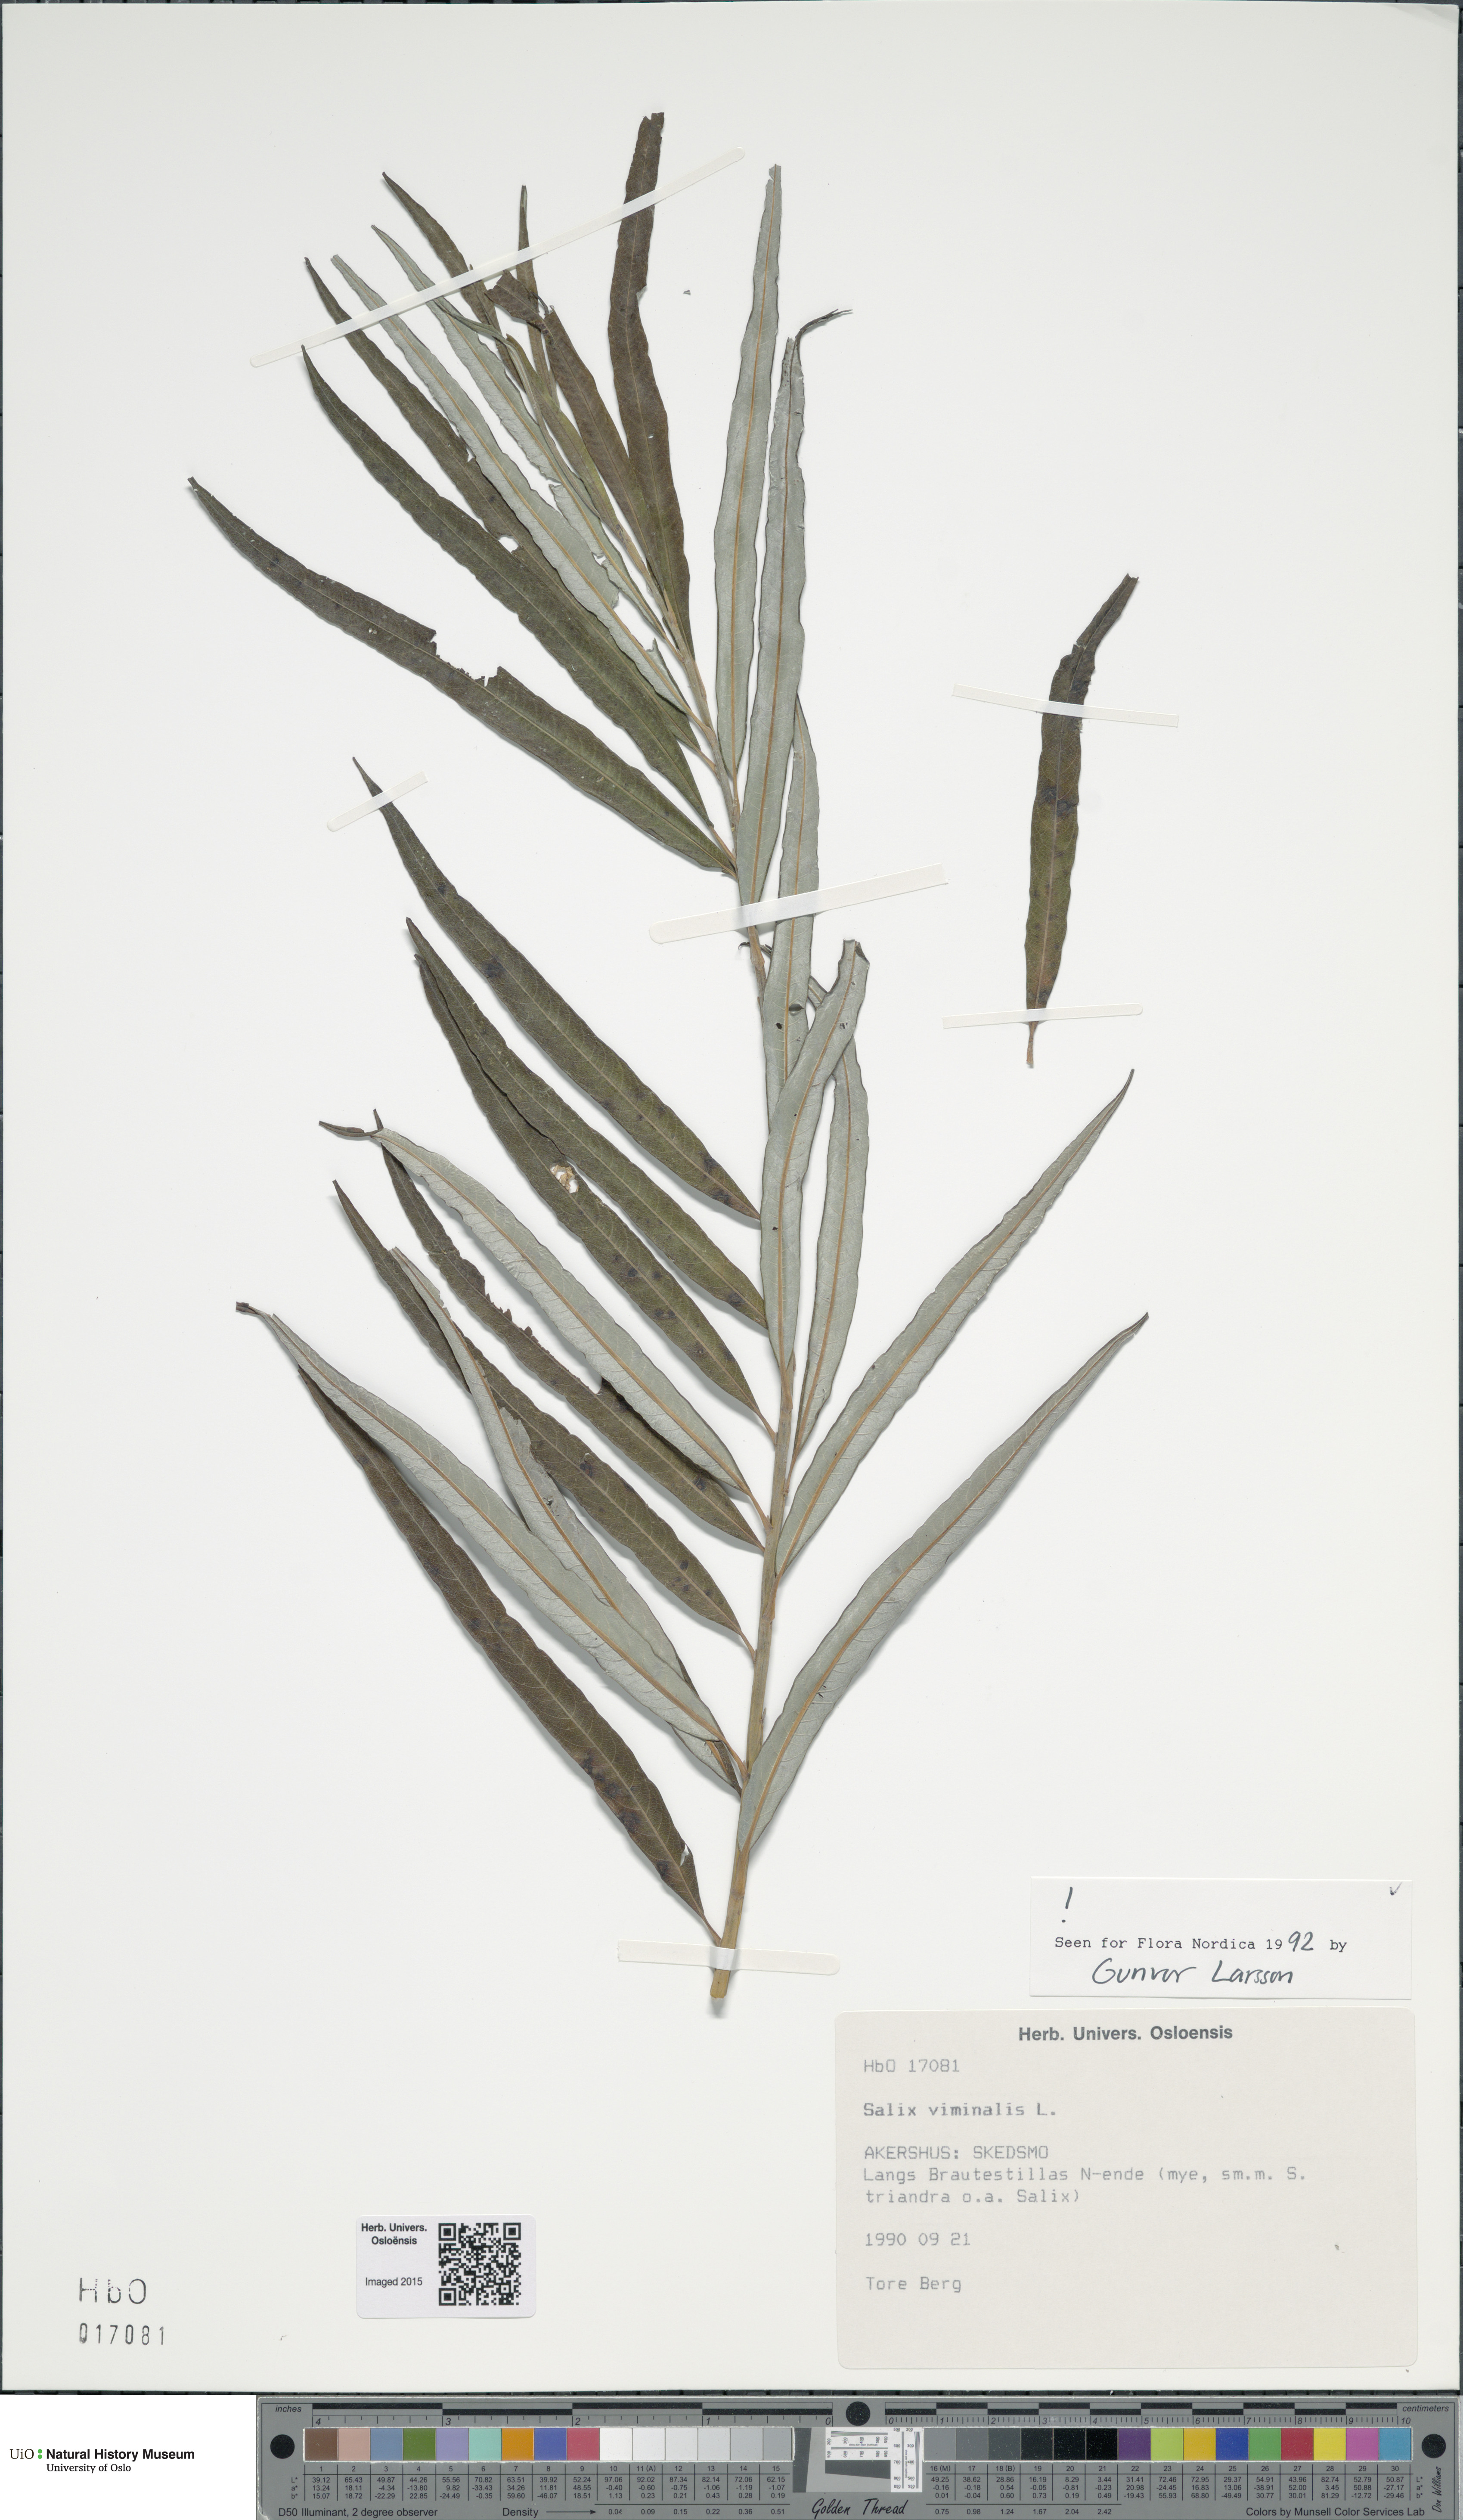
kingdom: Plantae
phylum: Tracheophyta
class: Magnoliopsida
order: Malpighiales
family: Salicaceae
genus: Salix
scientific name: Salix viminalis
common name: Osier
